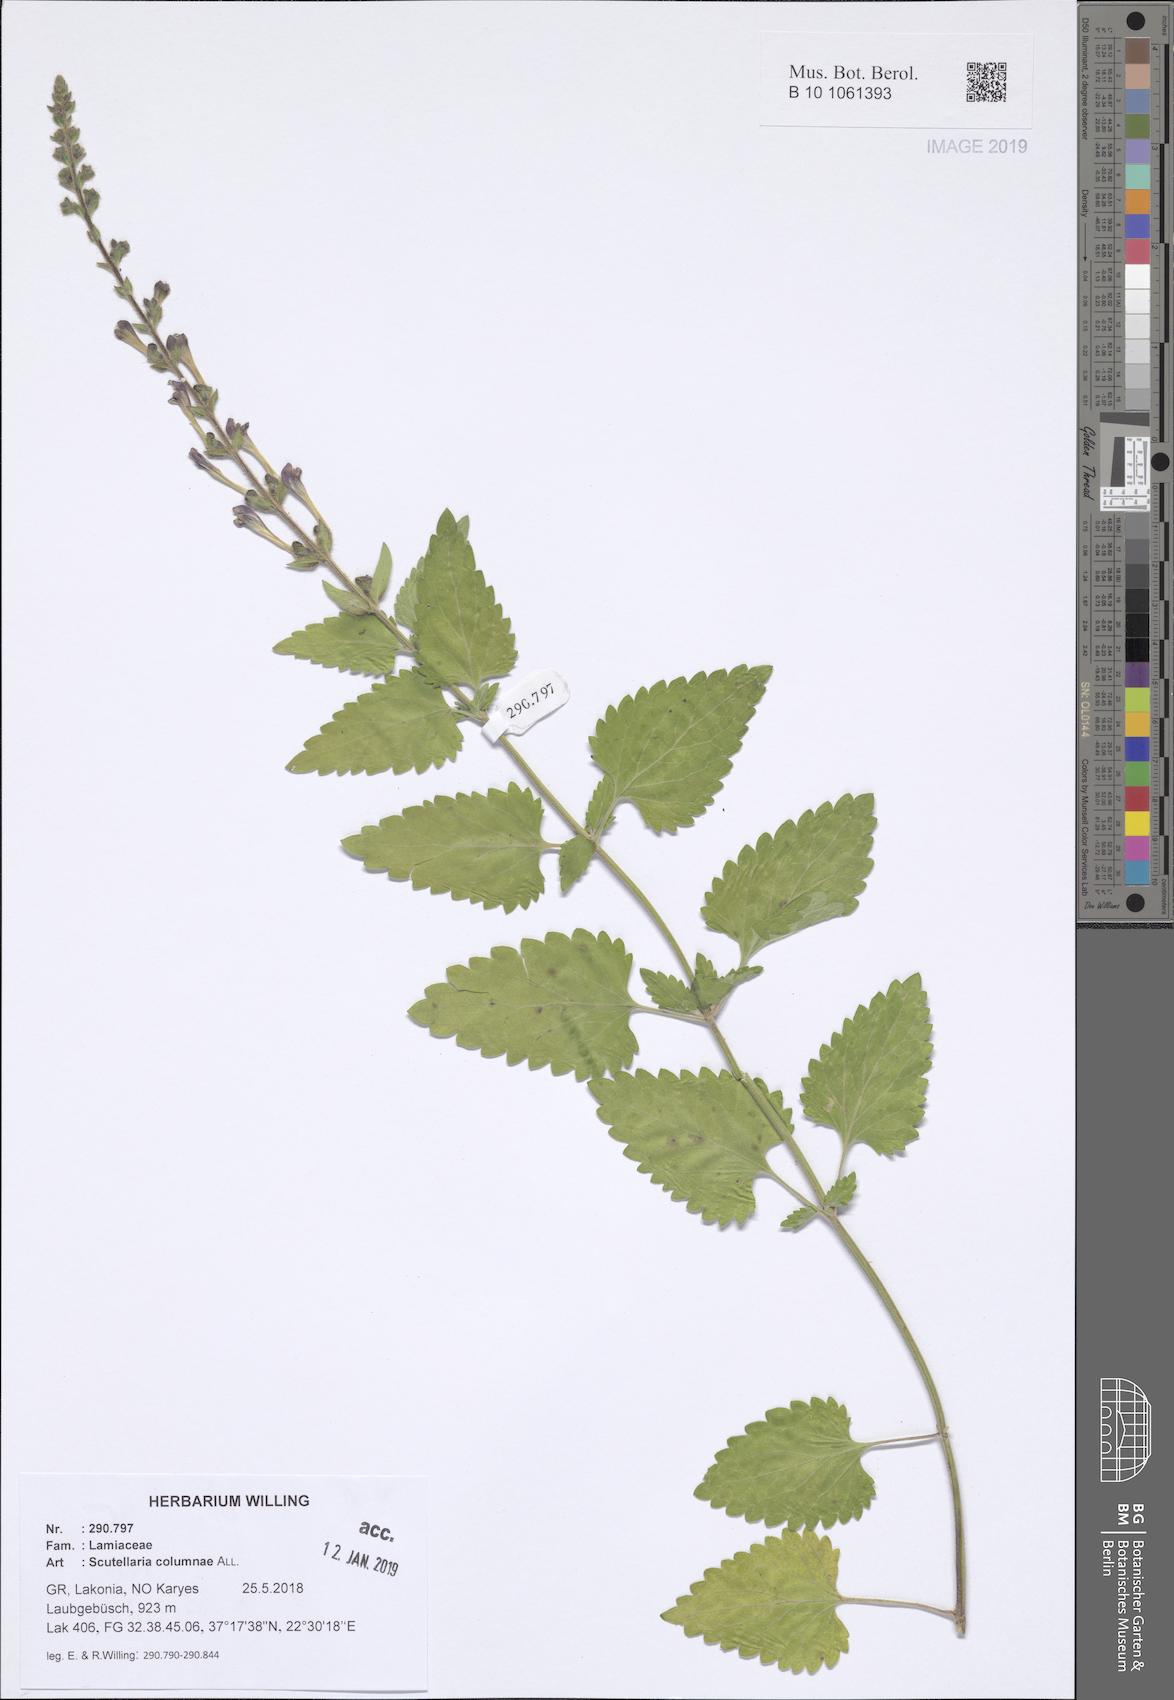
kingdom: Plantae
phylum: Tracheophyta
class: Magnoliopsida
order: Lamiales
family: Lamiaceae
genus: Scutellaria
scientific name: Scutellaria columnae
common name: Large skullcap
